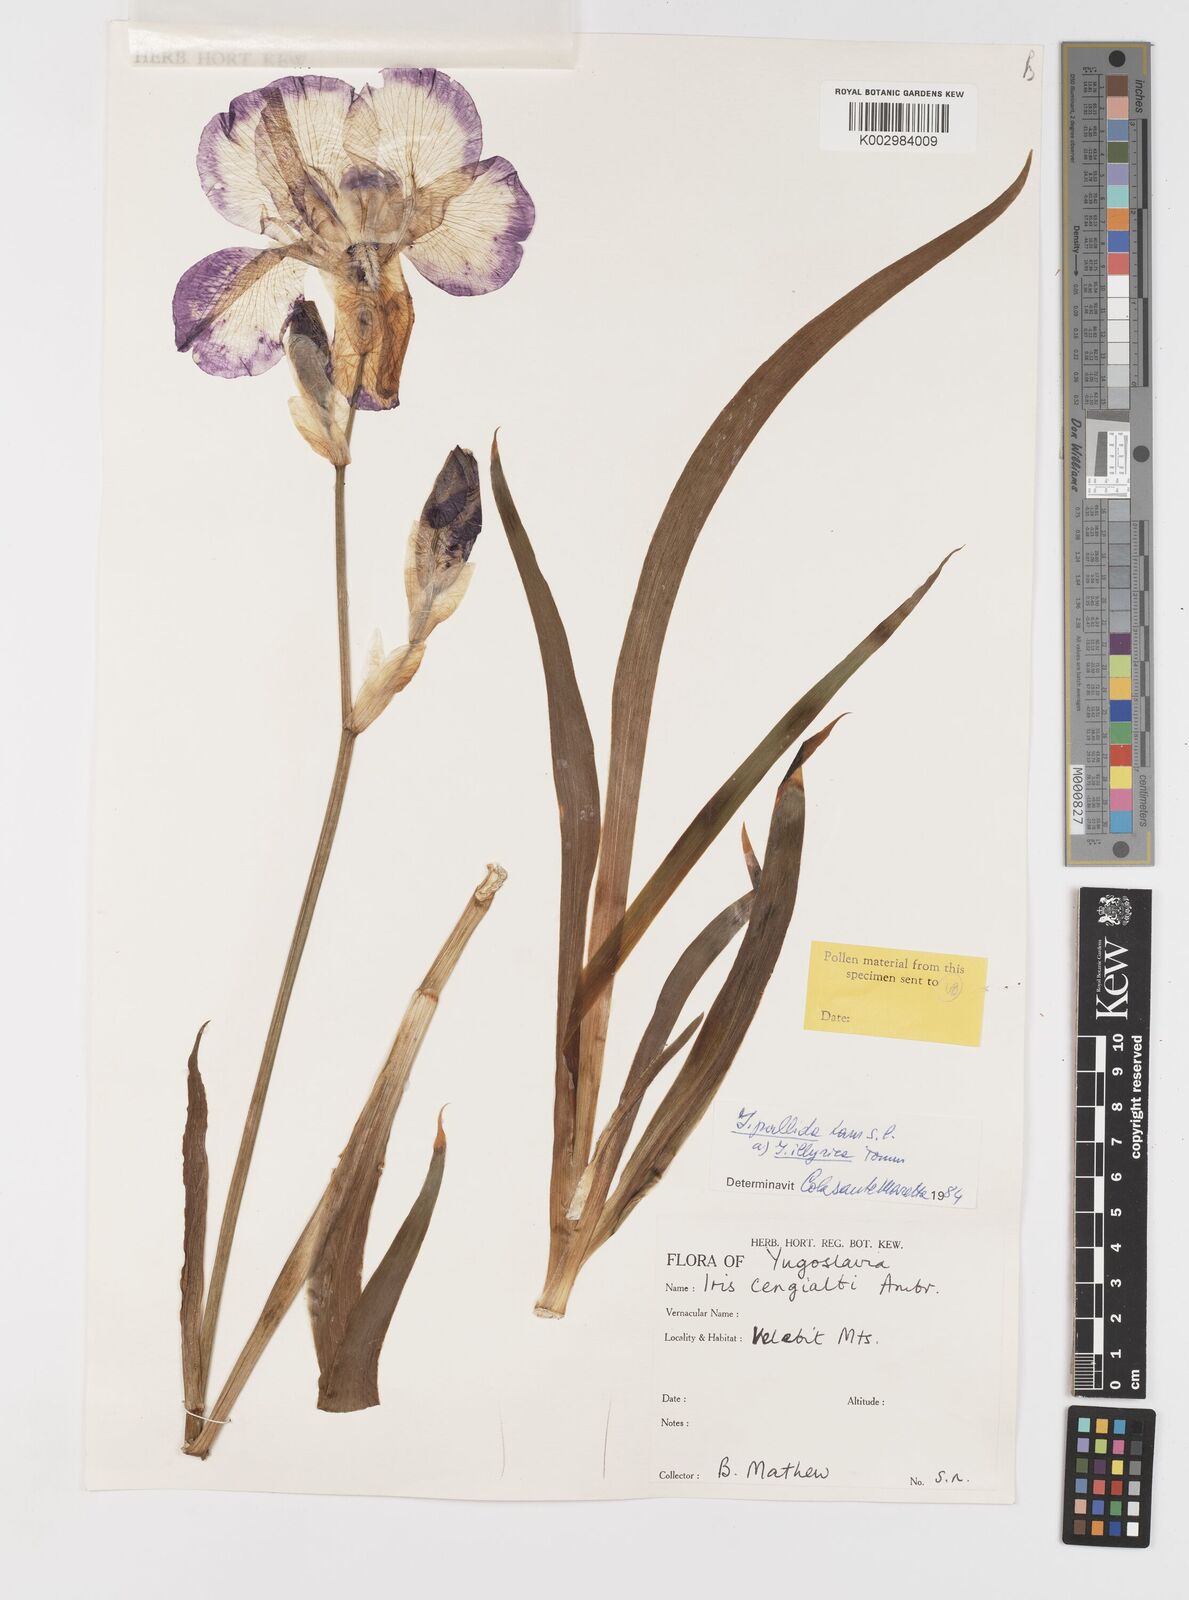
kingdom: Plantae
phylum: Tracheophyta
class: Liliopsida
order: Asparagales
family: Iridaceae
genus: Iris
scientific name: Iris pallida
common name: Sweet iris
